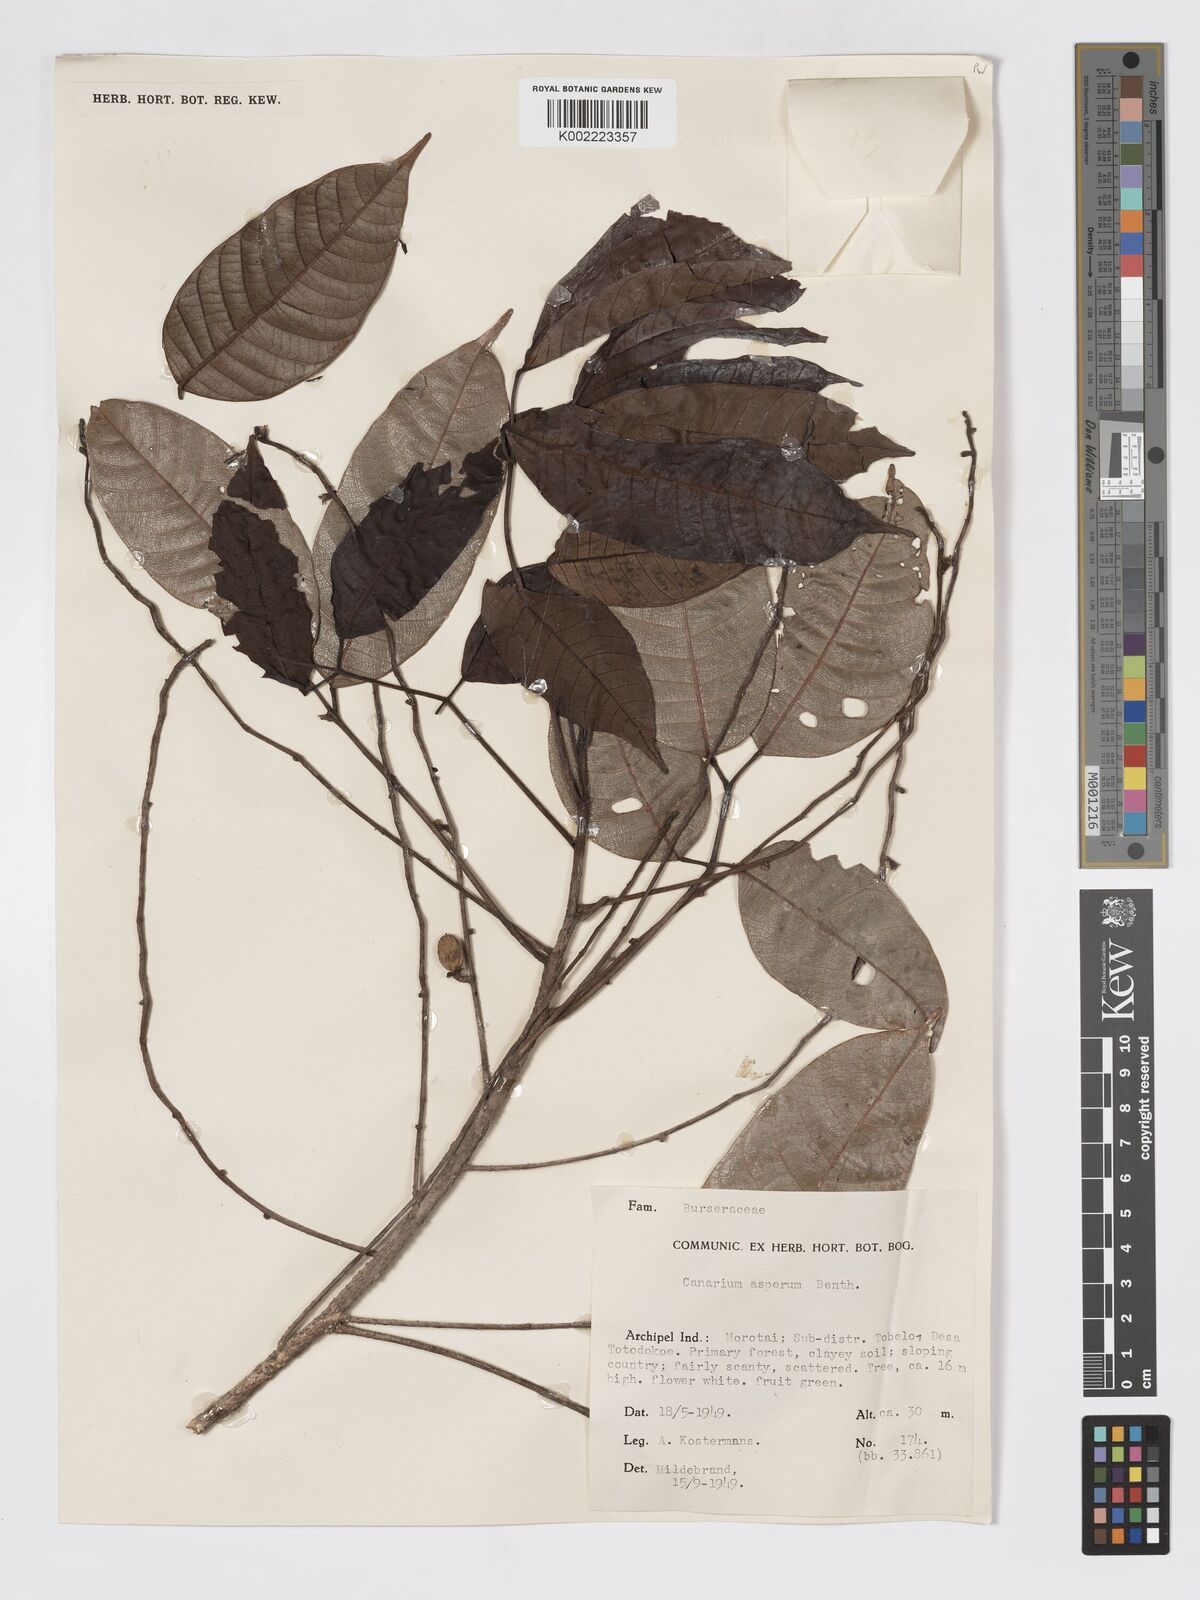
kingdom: Plantae
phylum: Tracheophyta
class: Magnoliopsida
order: Sapindales
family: Burseraceae
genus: Canarium
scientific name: Canarium asperum
